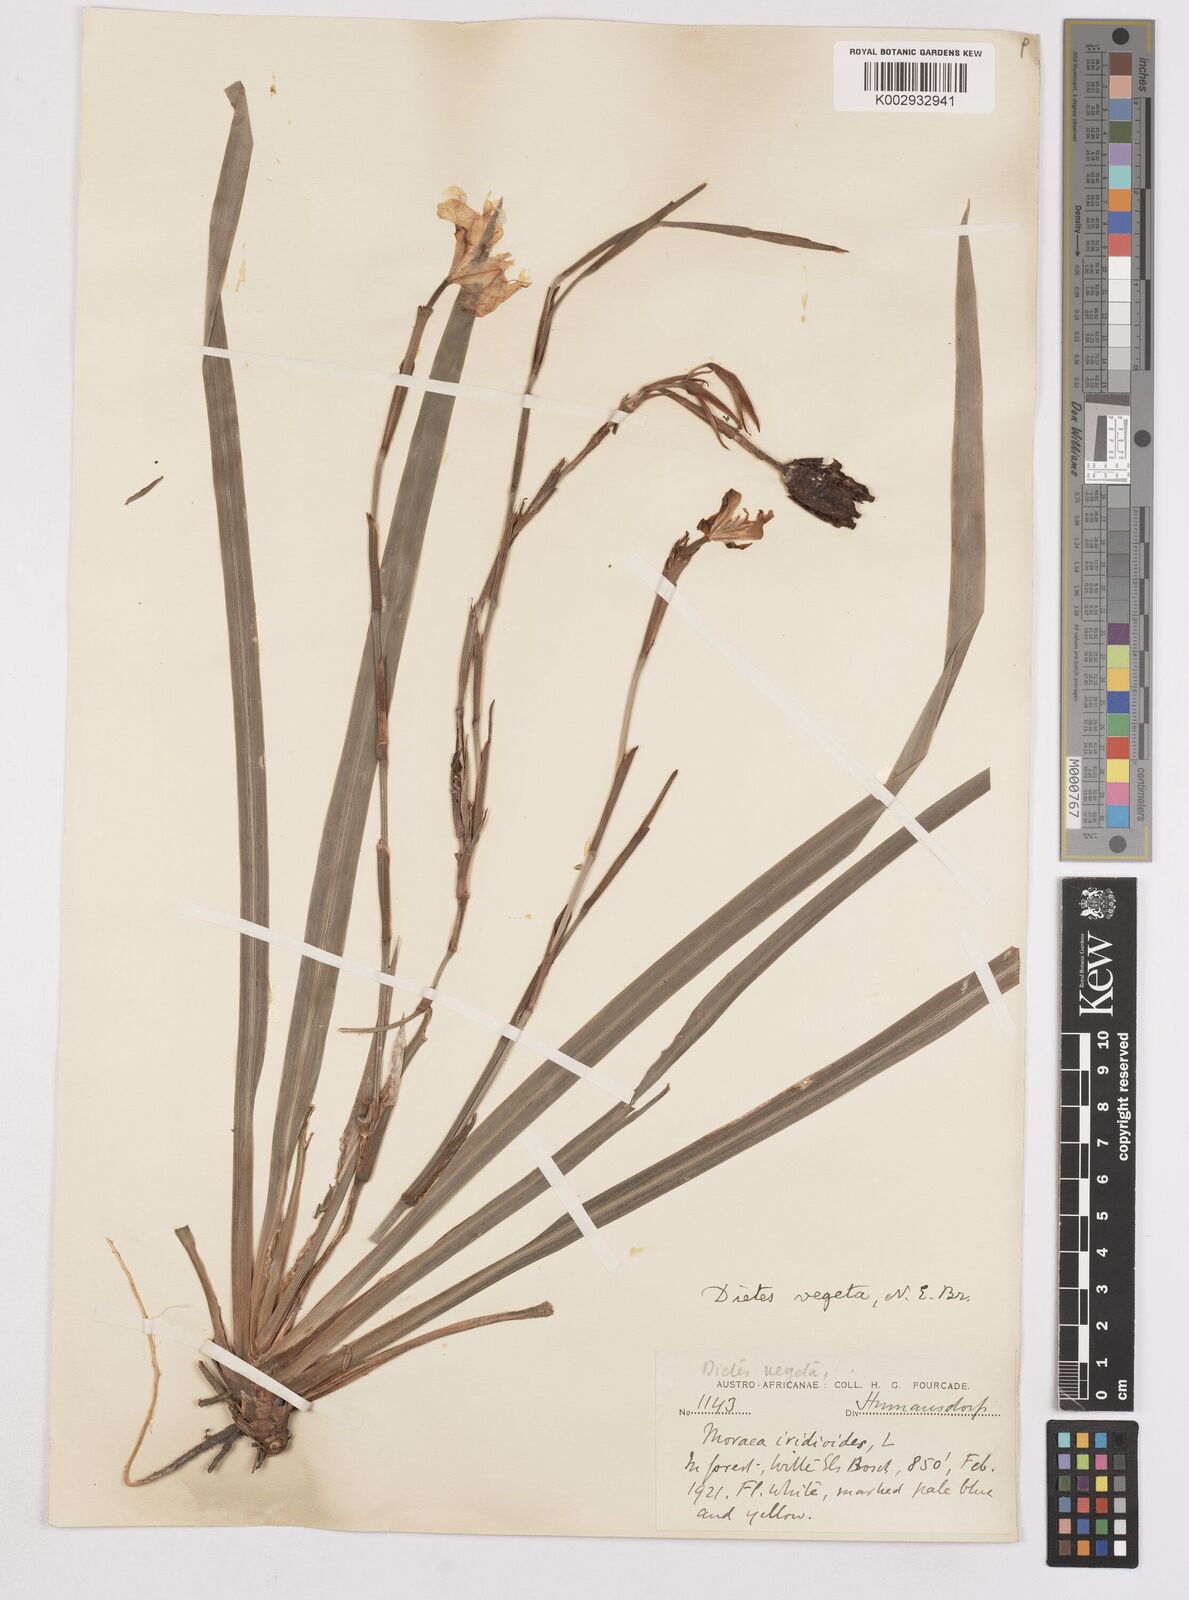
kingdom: Plantae
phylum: Tracheophyta
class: Liliopsida
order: Asparagales
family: Iridaceae
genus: Dietes
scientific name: Dietes iridioides
